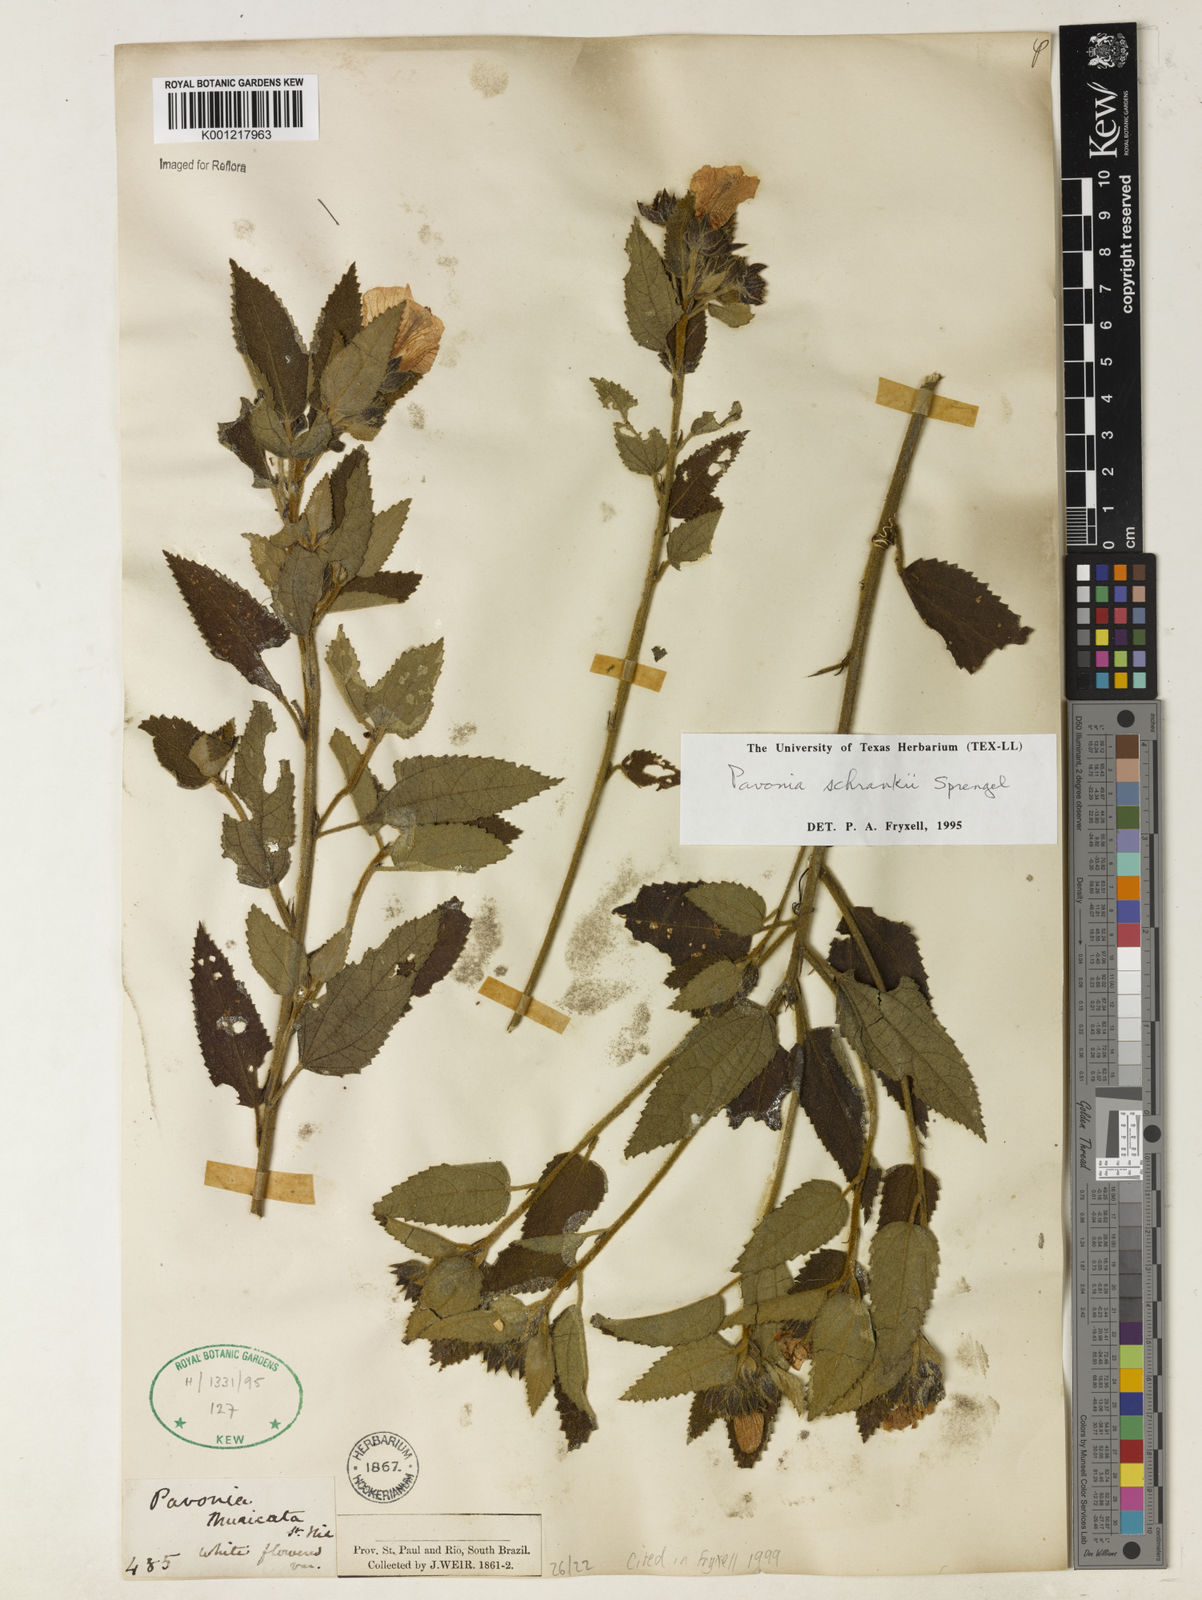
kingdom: Plantae
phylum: Tracheophyta
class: Magnoliopsida
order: Malvales
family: Malvaceae
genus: Pavonia
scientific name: Pavonia schrankii
